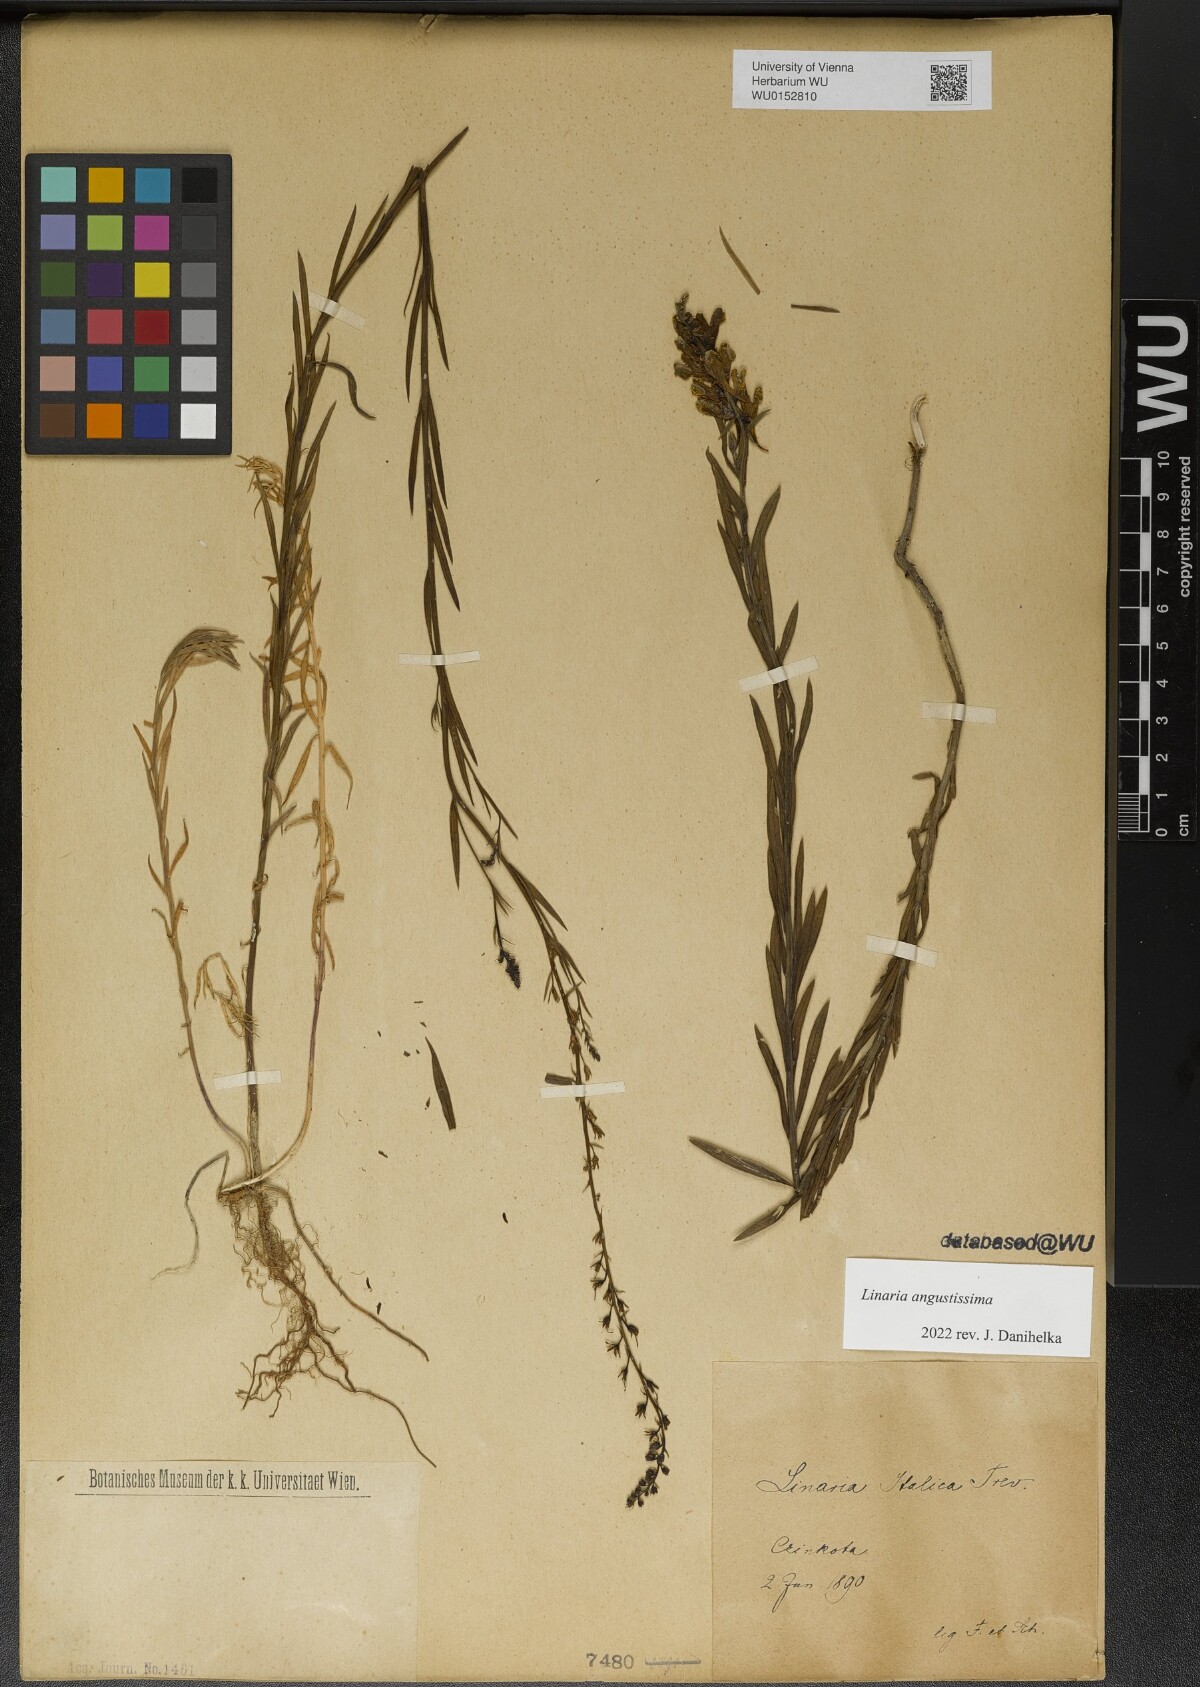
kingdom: Plantae
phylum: Tracheophyta
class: Magnoliopsida
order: Lamiales
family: Plantaginaceae
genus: Linaria
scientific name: Linaria angustissima
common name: Italian toadflax
